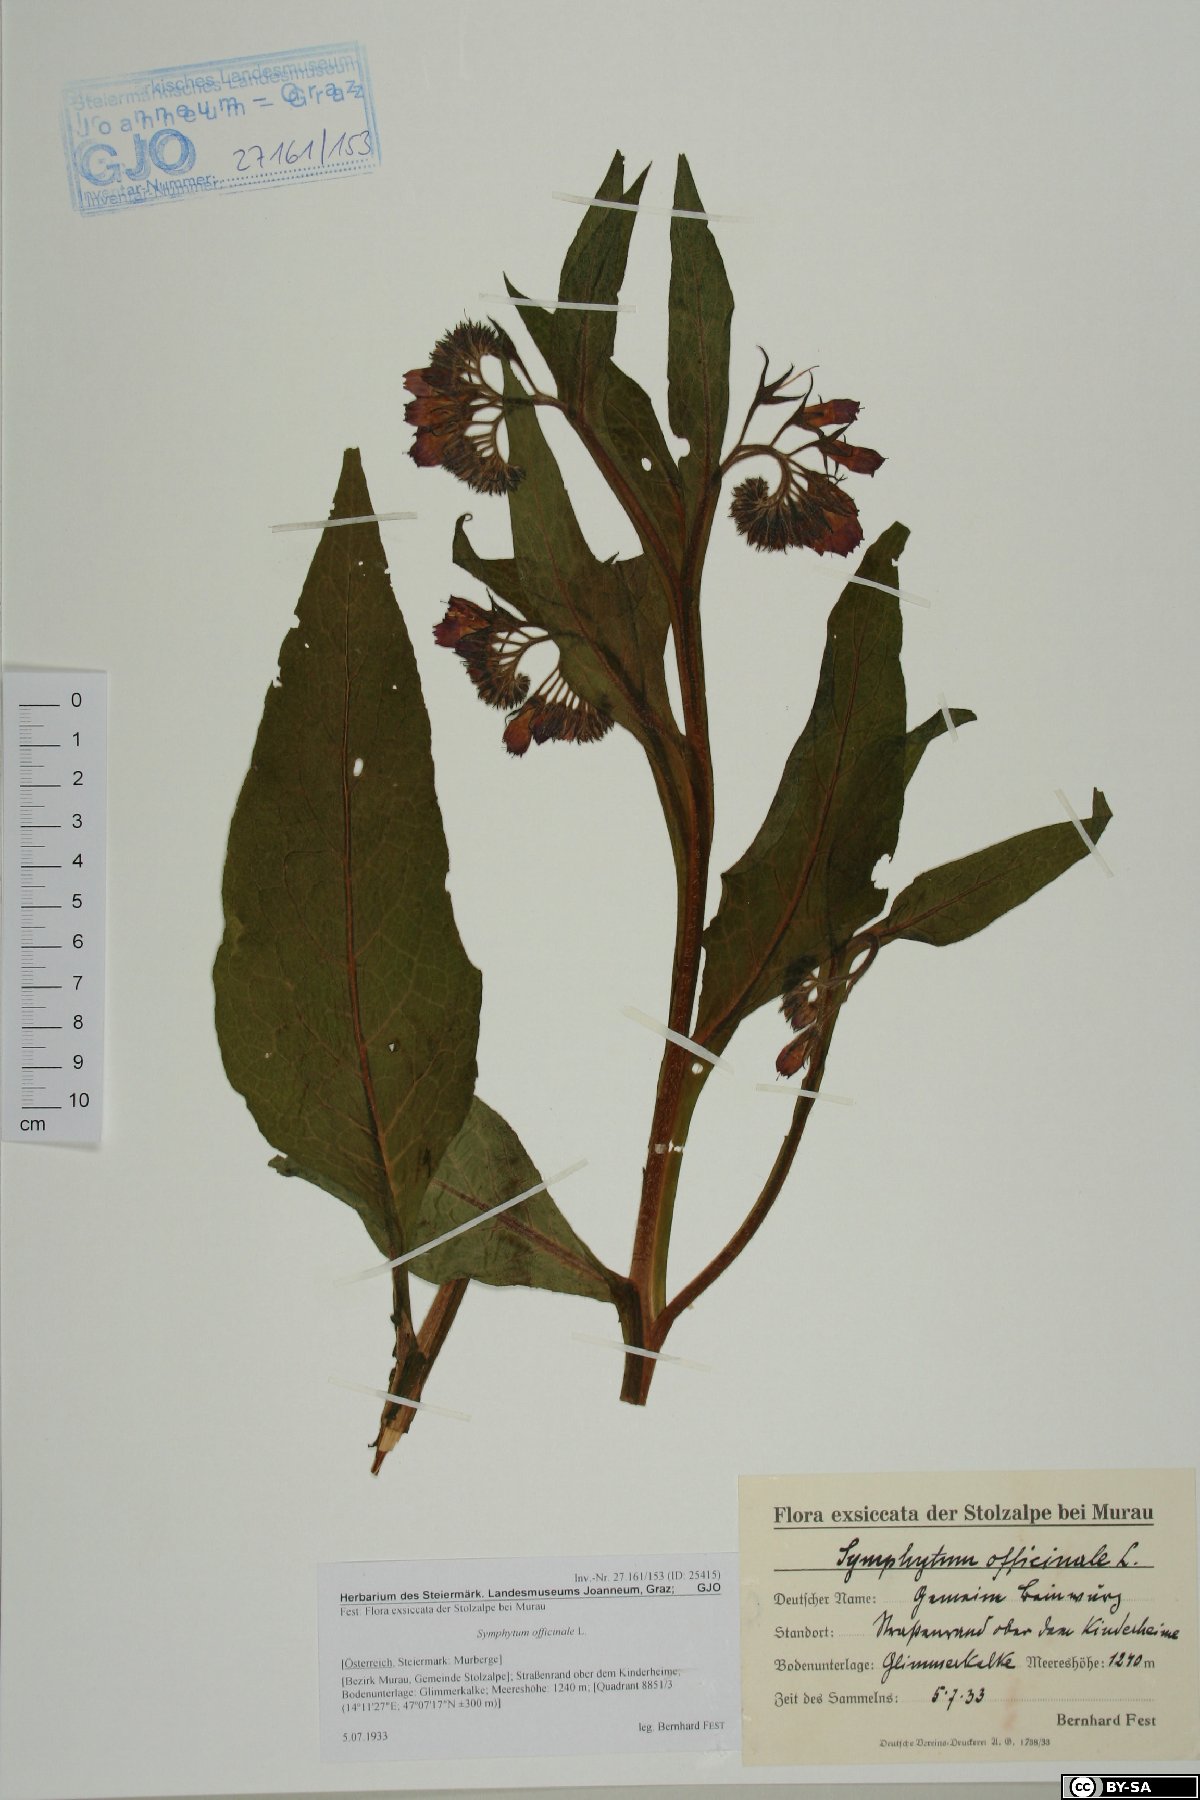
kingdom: Plantae
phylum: Tracheophyta
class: Magnoliopsida
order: Boraginales
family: Boraginaceae
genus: Symphytum
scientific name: Symphytum officinale
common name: Common comfrey
